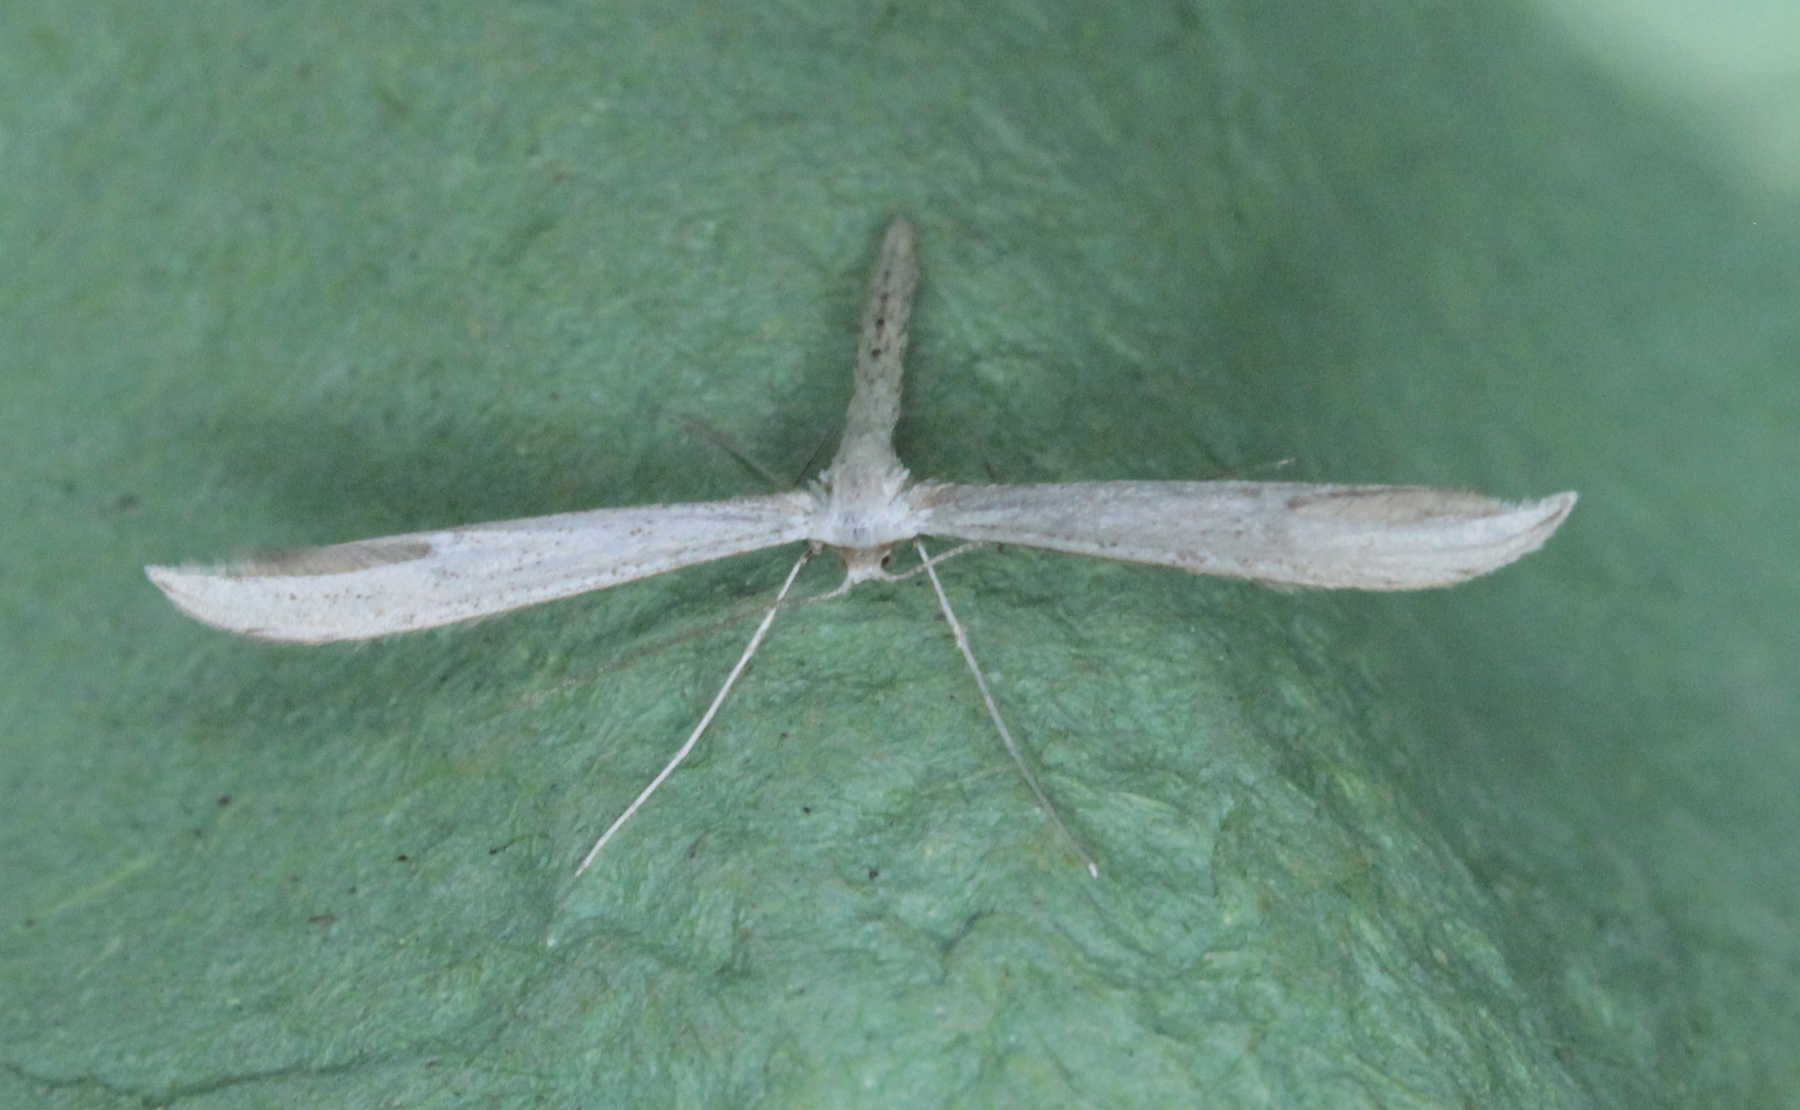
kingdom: Animalia
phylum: Arthropoda
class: Insecta
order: Lepidoptera
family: Pterophoridae
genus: Pterophorus
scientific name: Pterophorus pentadactyla
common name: White plume moth
